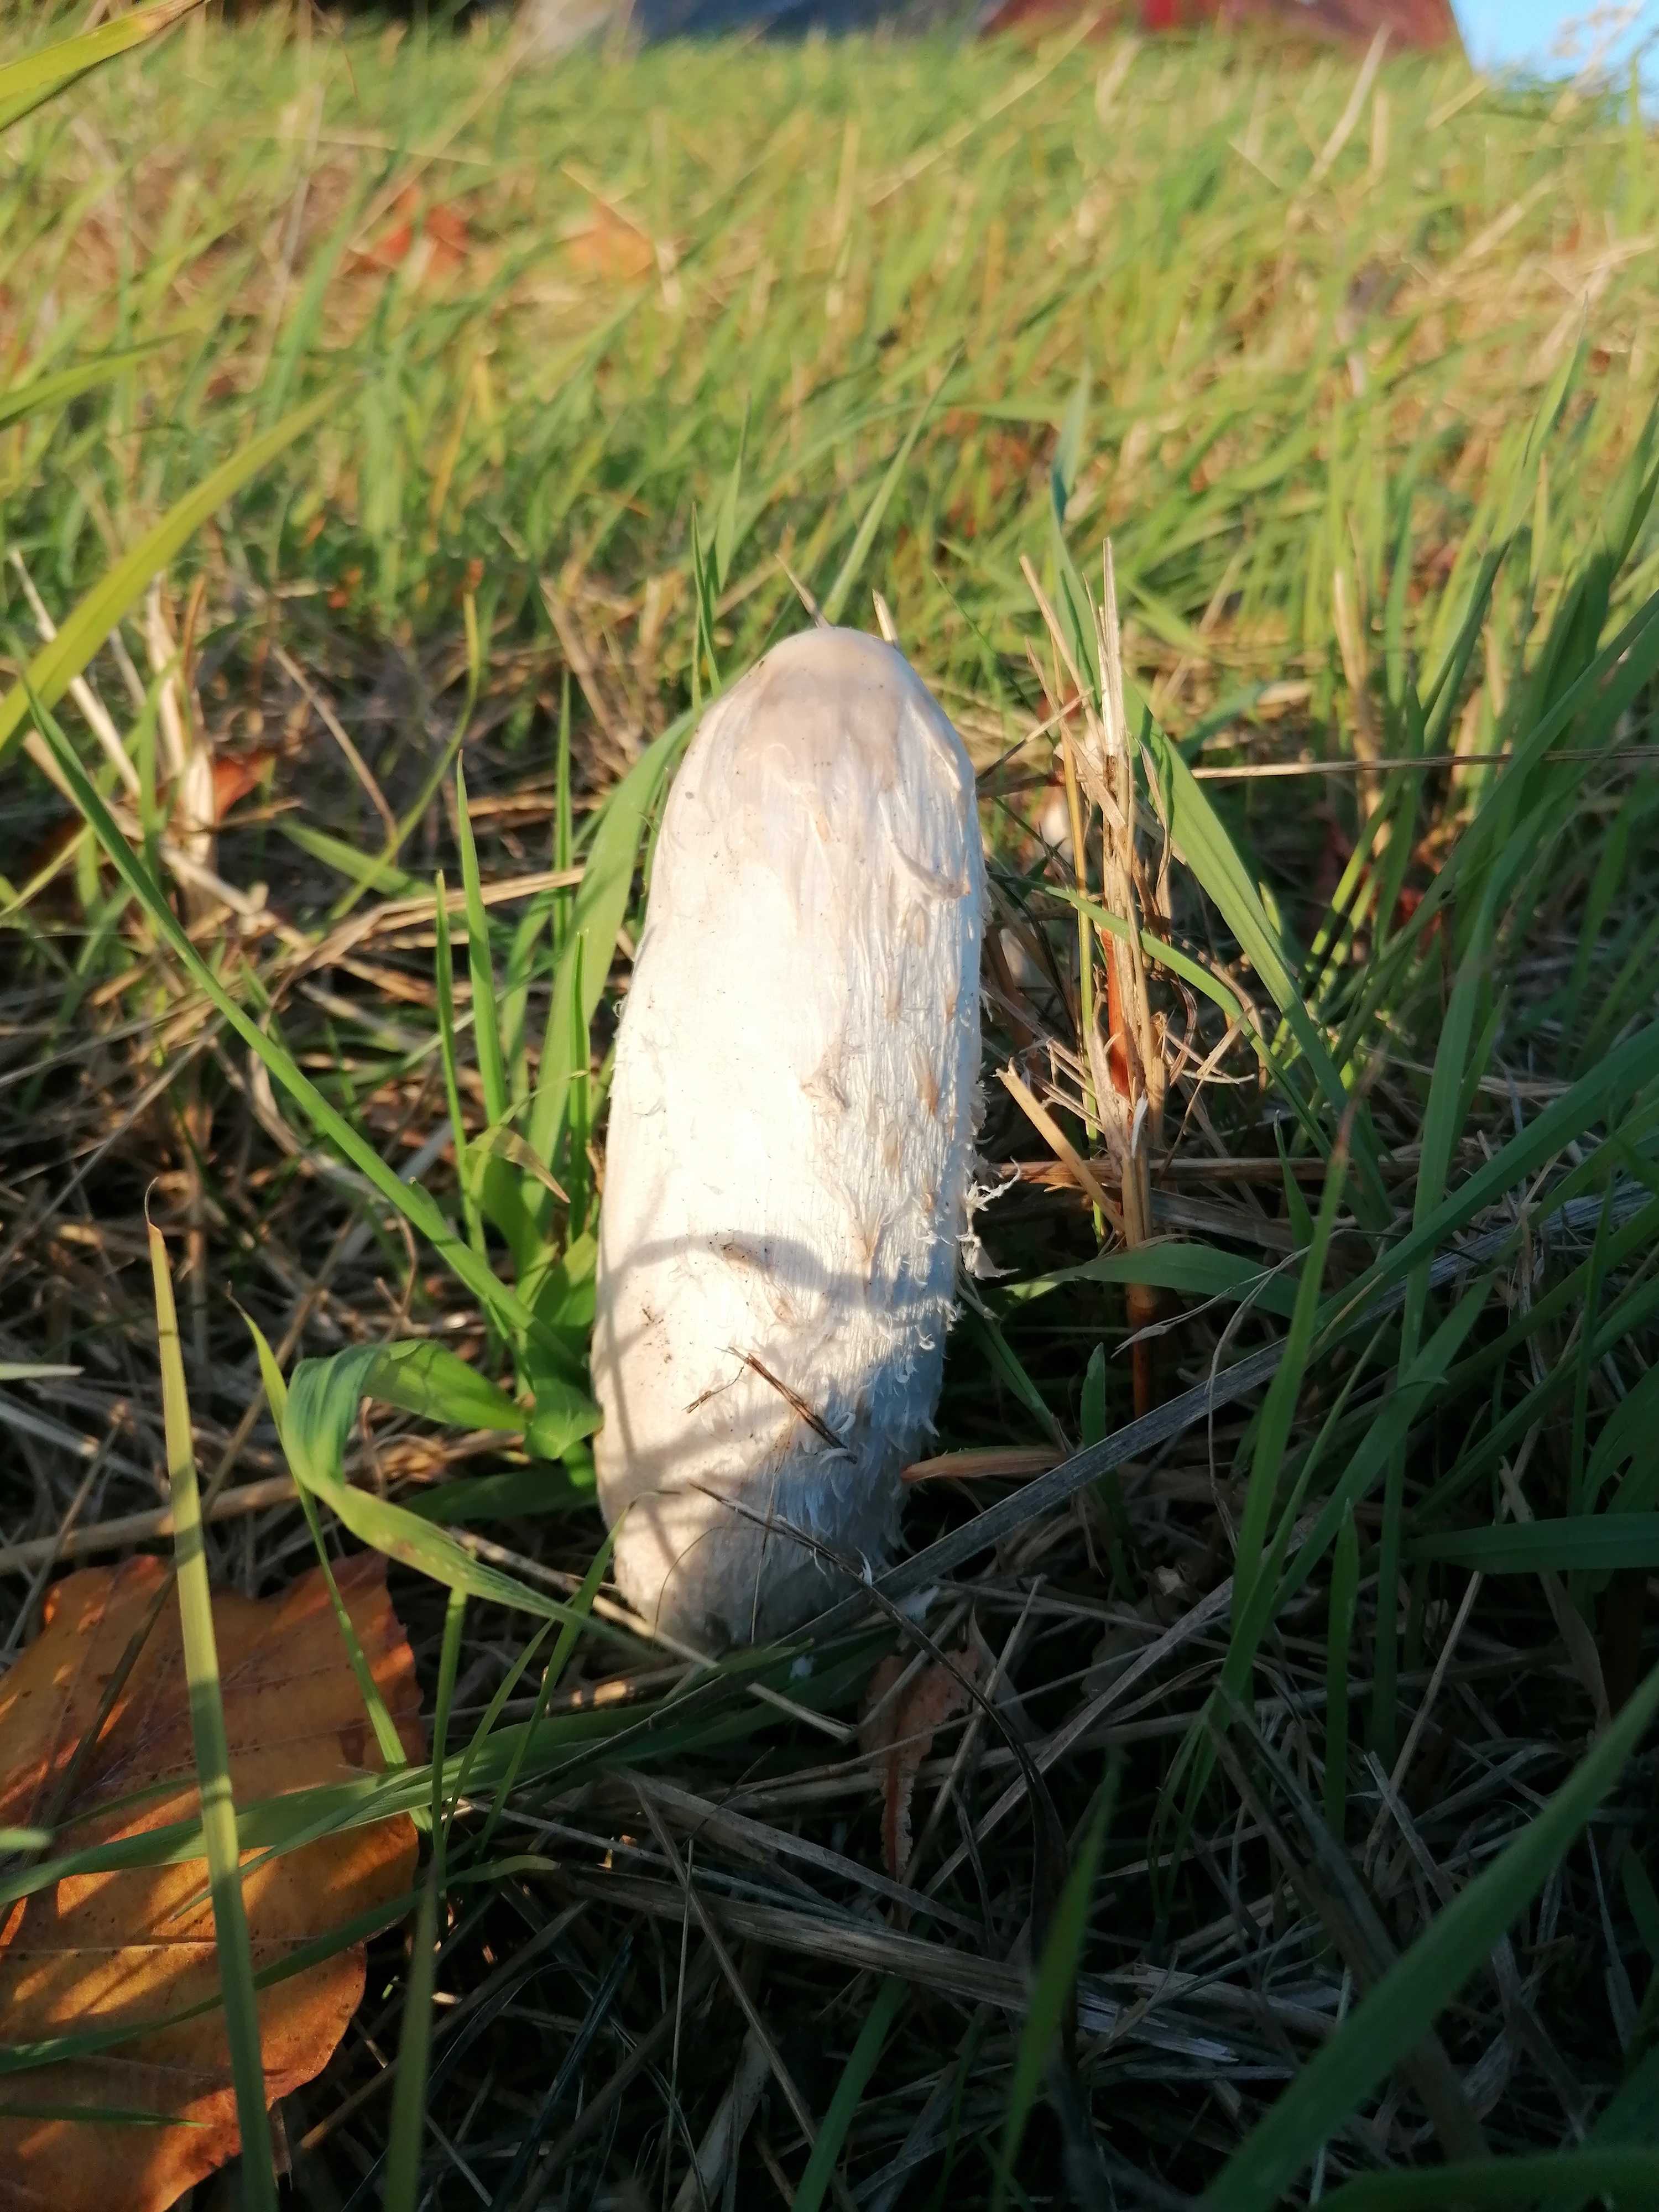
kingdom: Fungi
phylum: Basidiomycota
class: Agaricomycetes
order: Agaricales
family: Agaricaceae
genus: Coprinus
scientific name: Coprinus comatus
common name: stor parykhat
